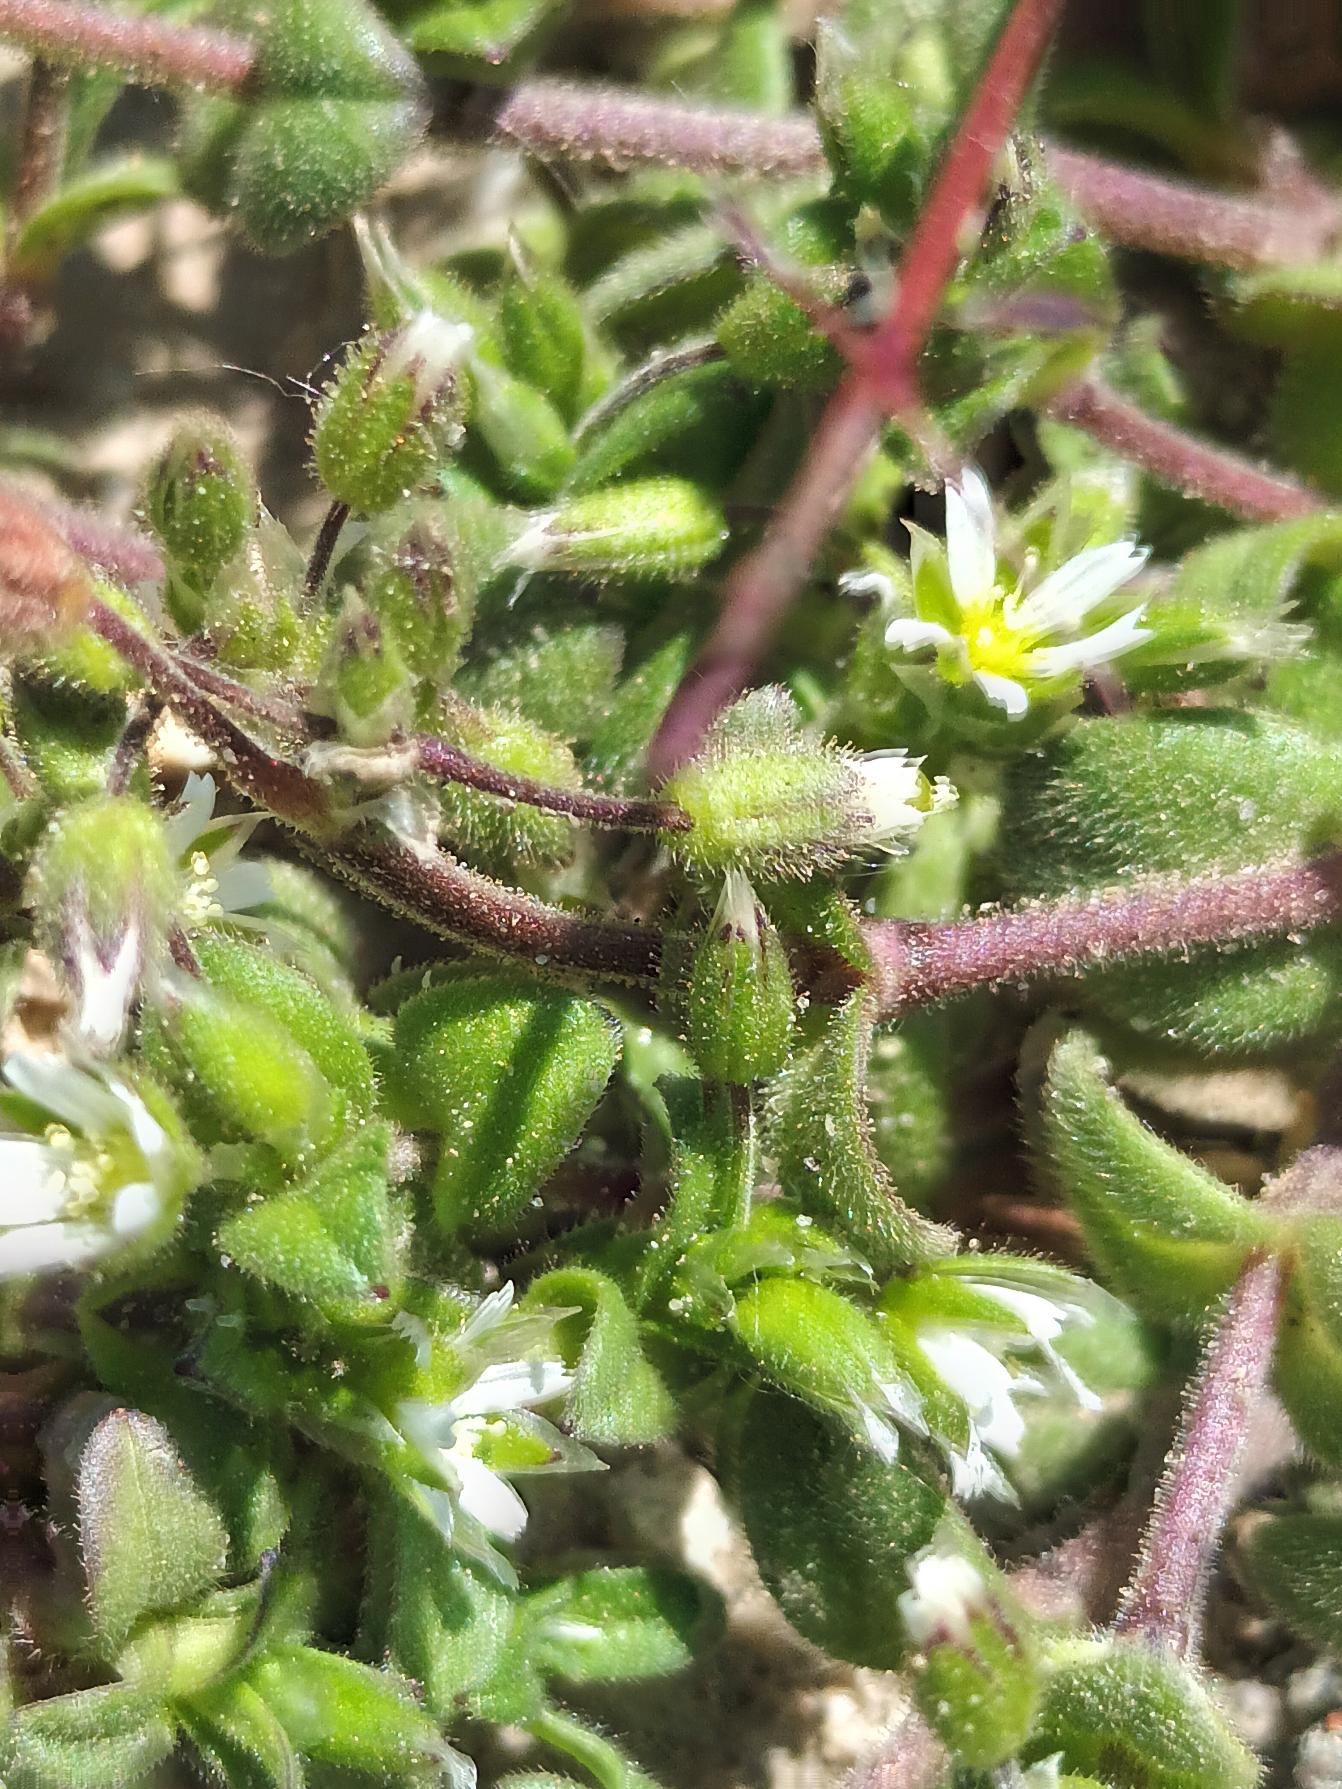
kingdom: Plantae
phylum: Tracheophyta
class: Magnoliopsida
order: Caryophyllales
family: Caryophyllaceae
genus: Cerastium
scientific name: Cerastium semidecandrum
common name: Femhannet hønsetarm
